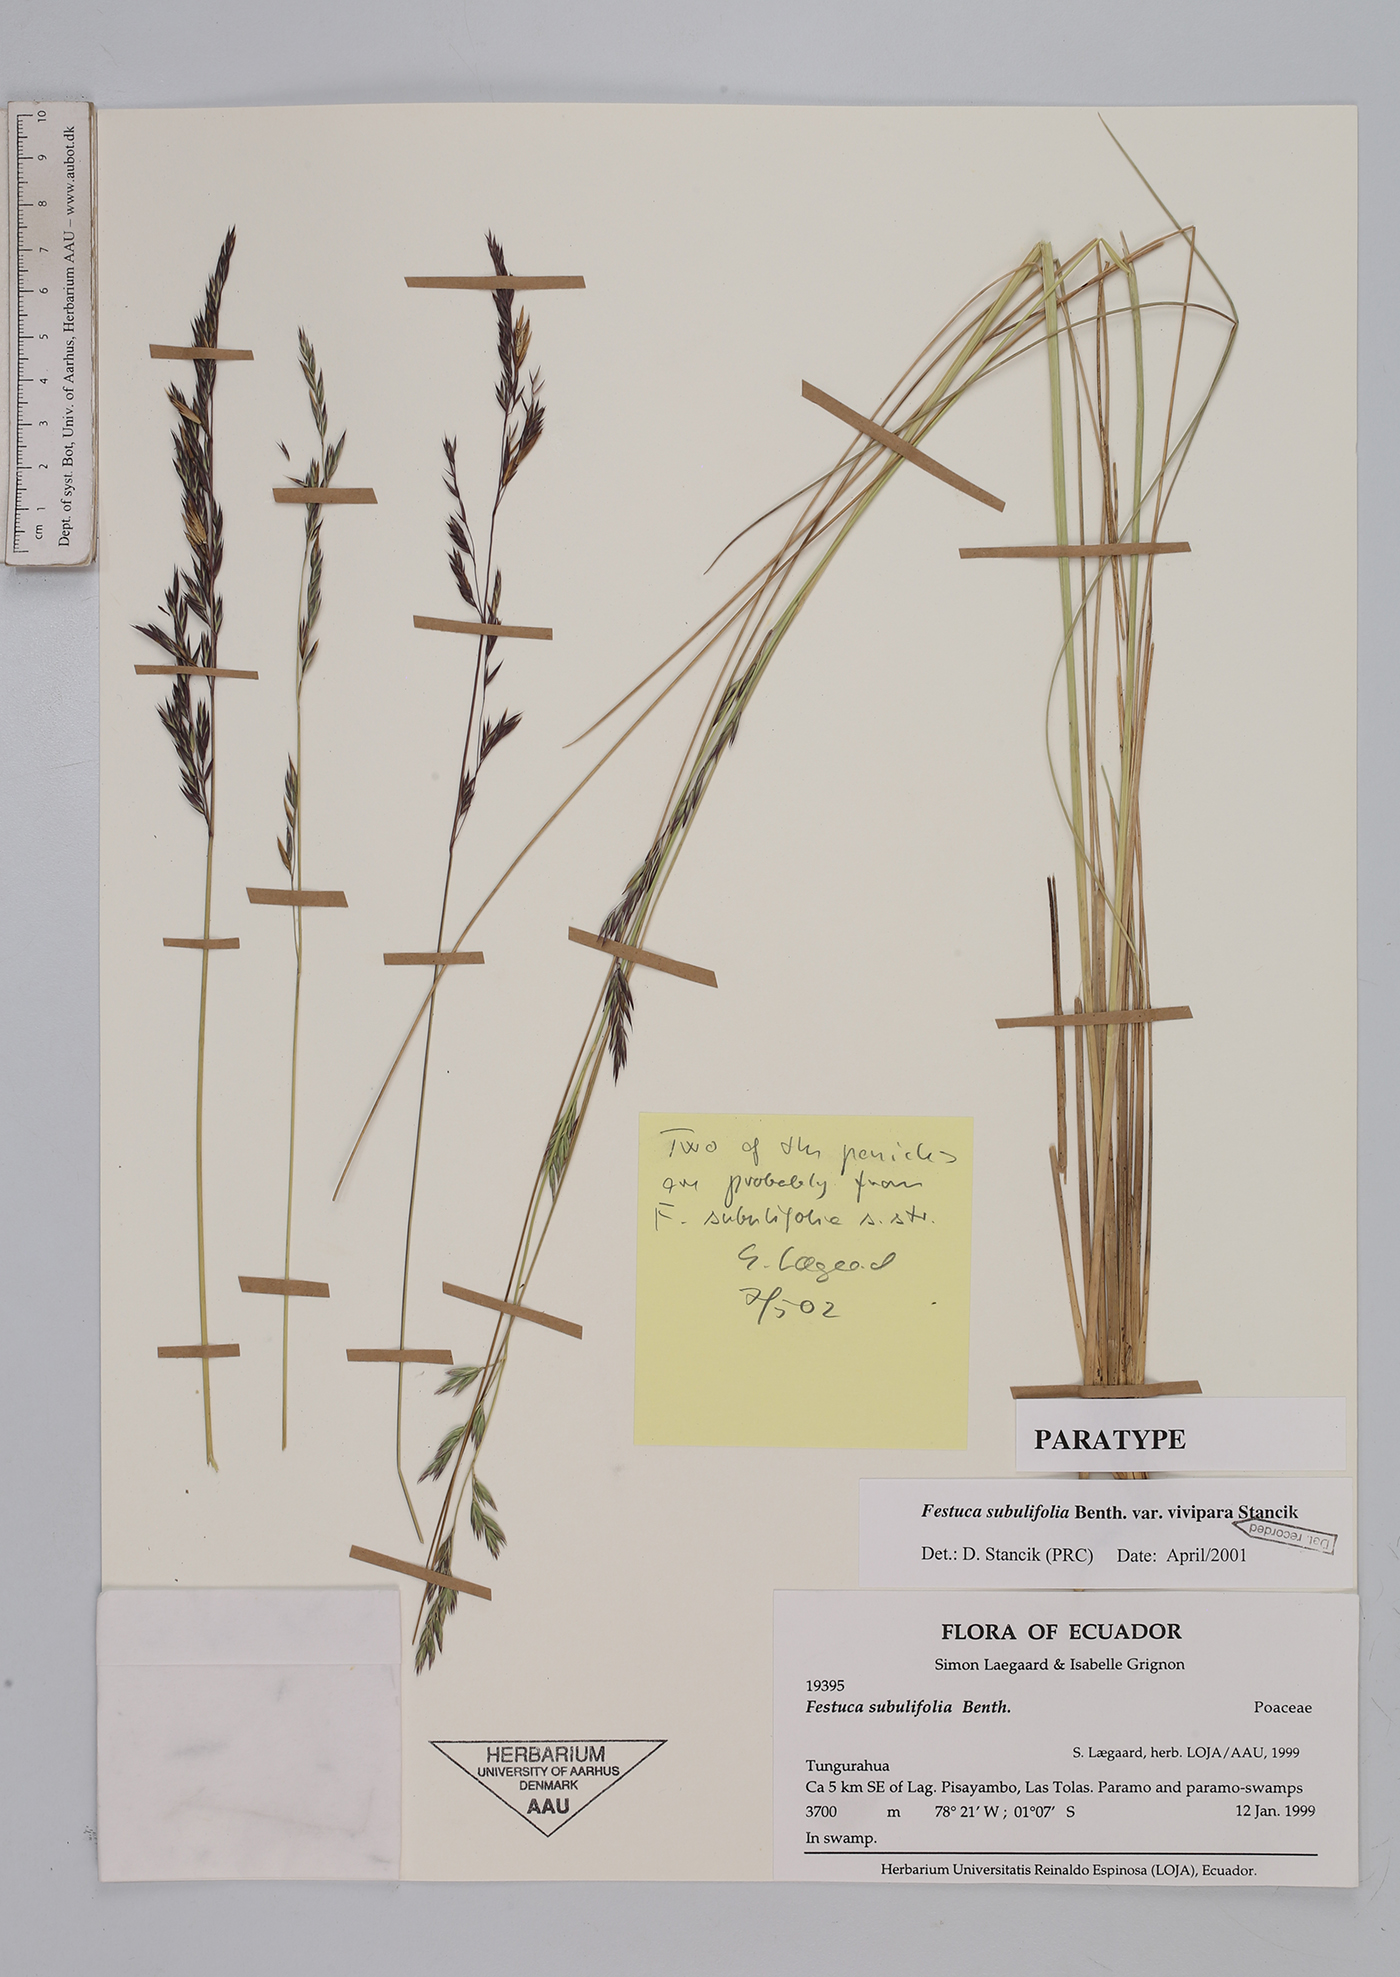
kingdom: Plantae
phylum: Tracheophyta
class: Liliopsida
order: Poales
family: Poaceae
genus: Festuca
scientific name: Festuca dolichophylla
